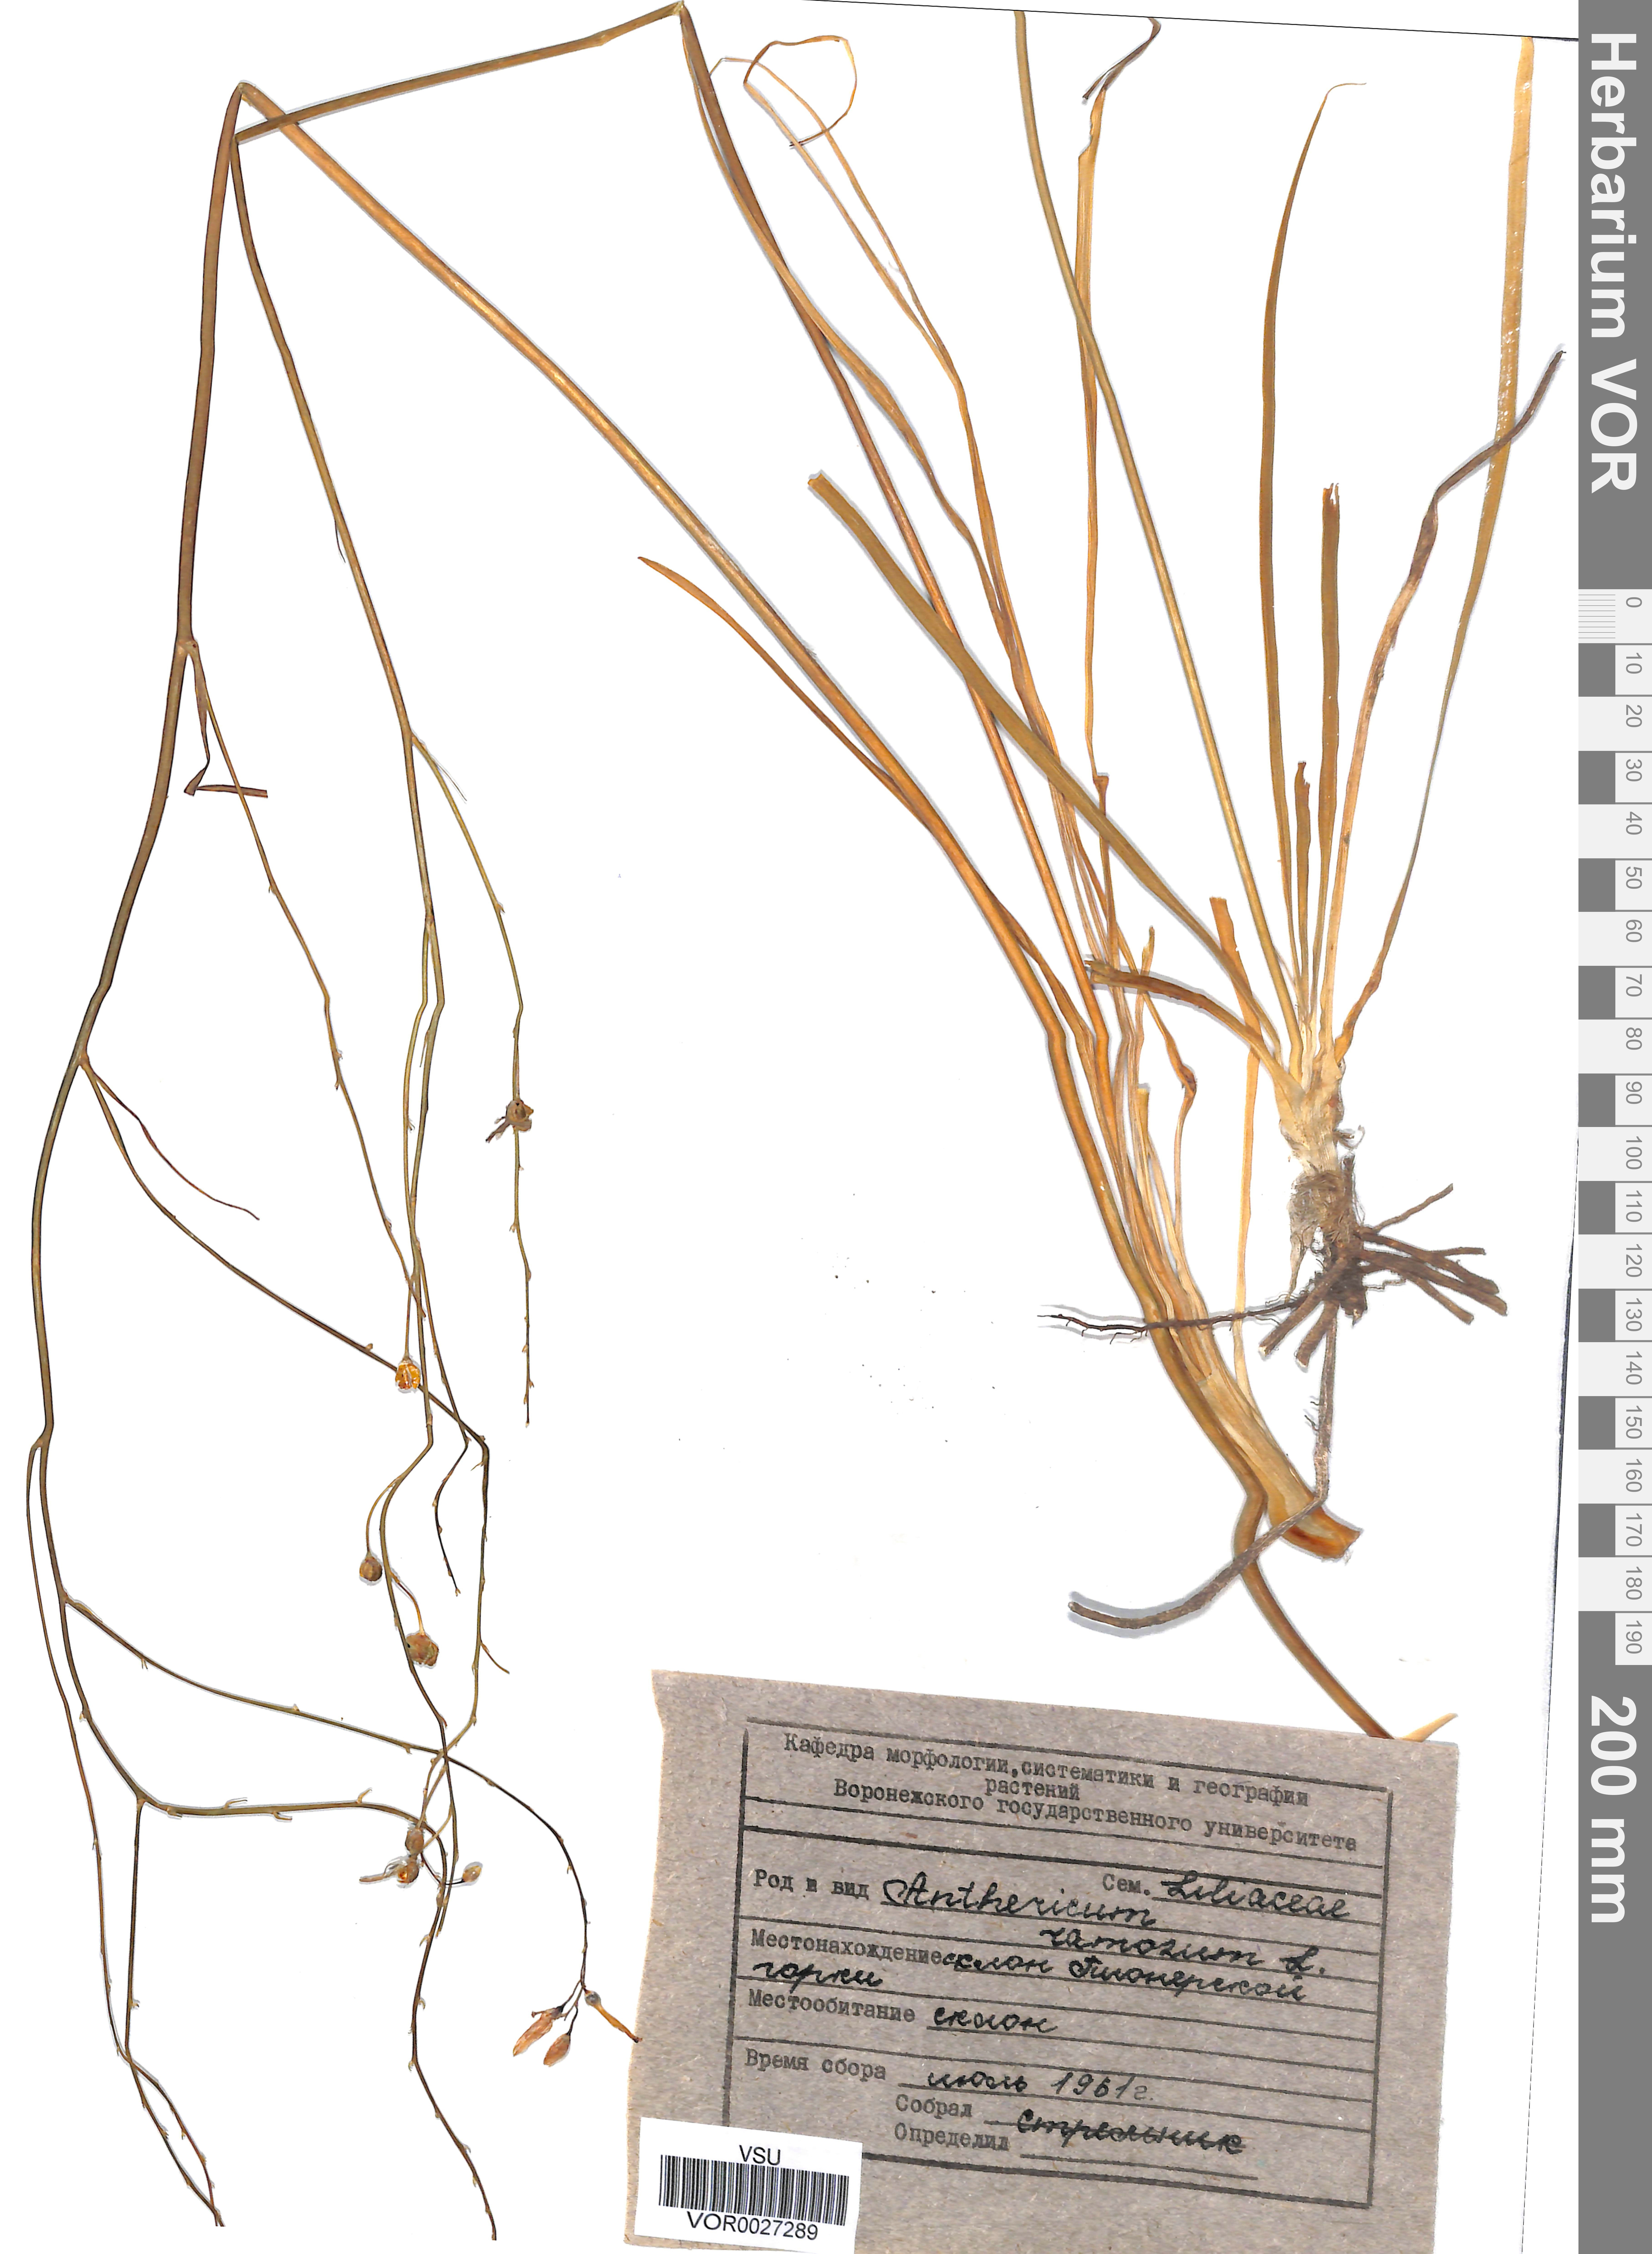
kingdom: Plantae
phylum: Tracheophyta
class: Liliopsida
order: Asparagales
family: Asparagaceae
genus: Anthericum
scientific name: Anthericum ramosum
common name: Branched st. bernard's-lily
